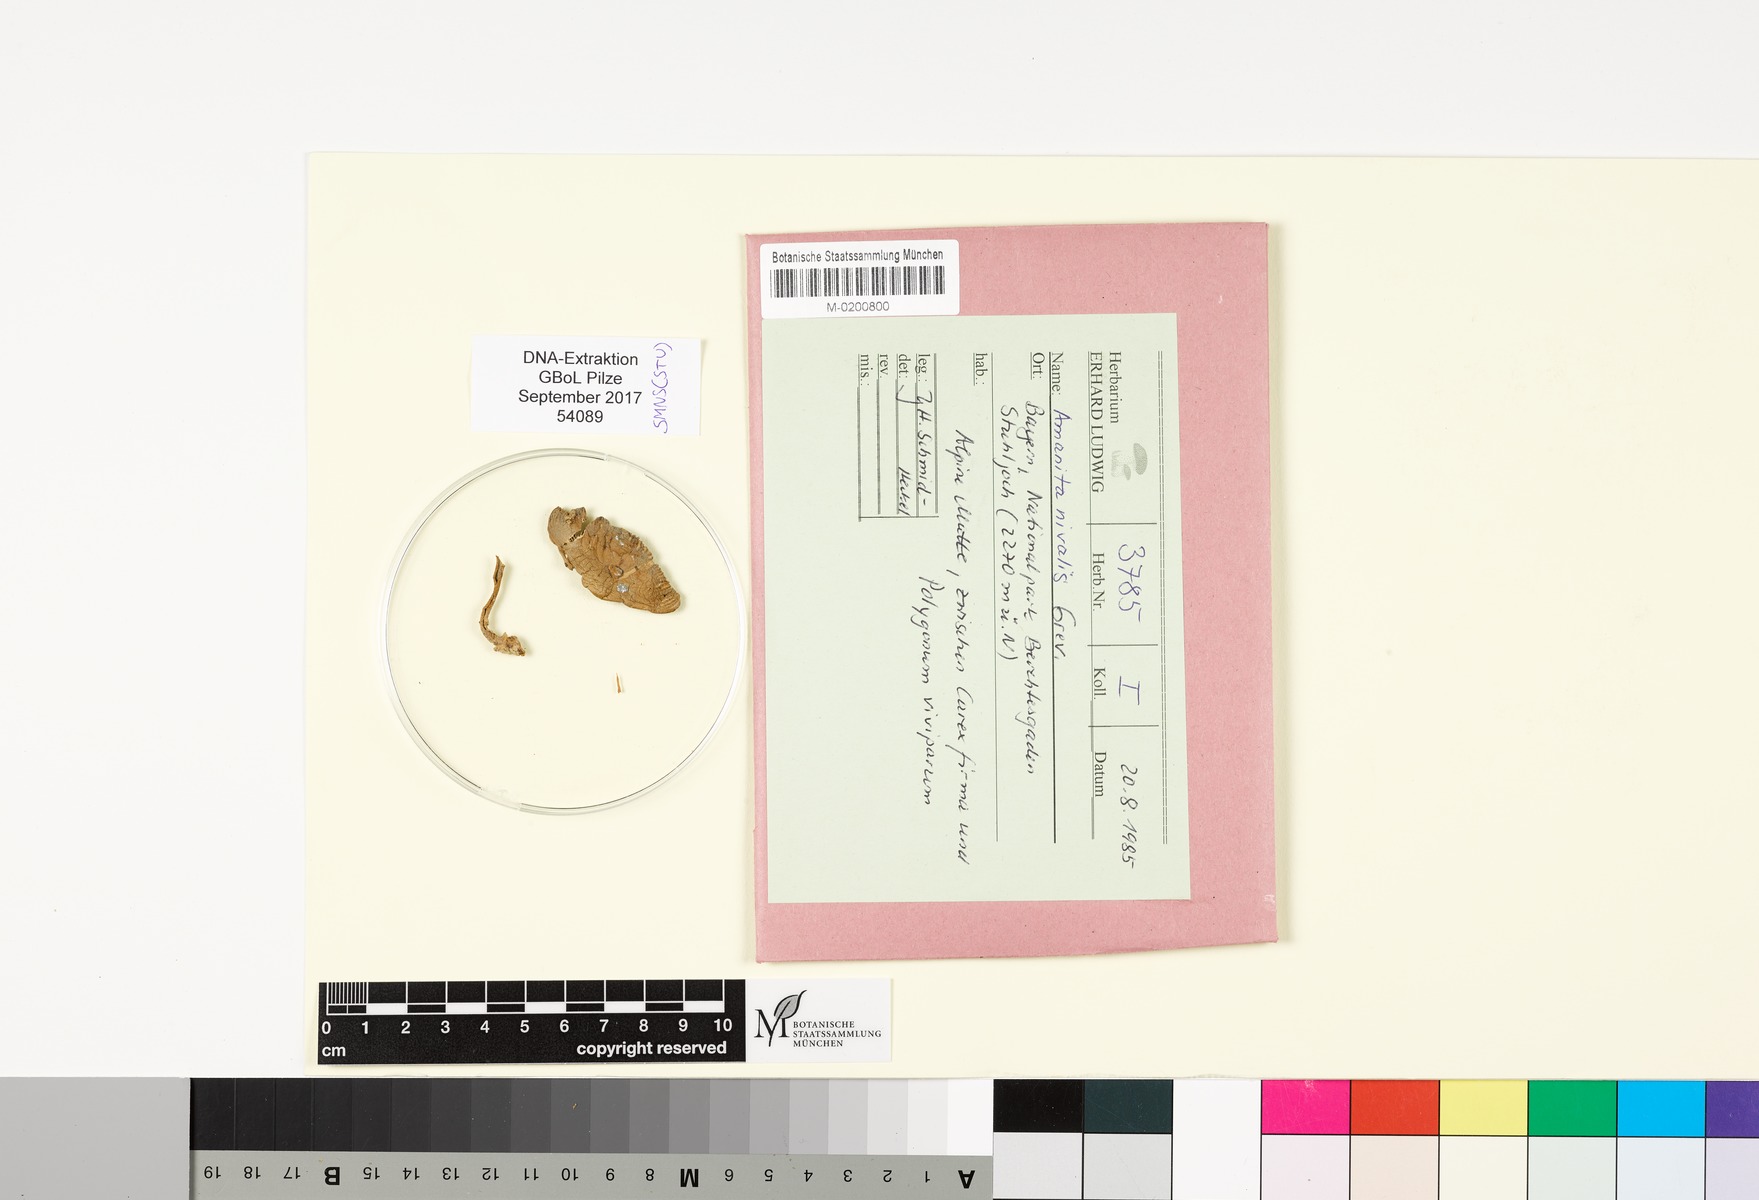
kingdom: Fungi
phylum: Basidiomycota
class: Agaricomycetes
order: Agaricales
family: Amanitaceae
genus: Amanita
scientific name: Amanita nivalis
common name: Mountain grisette
